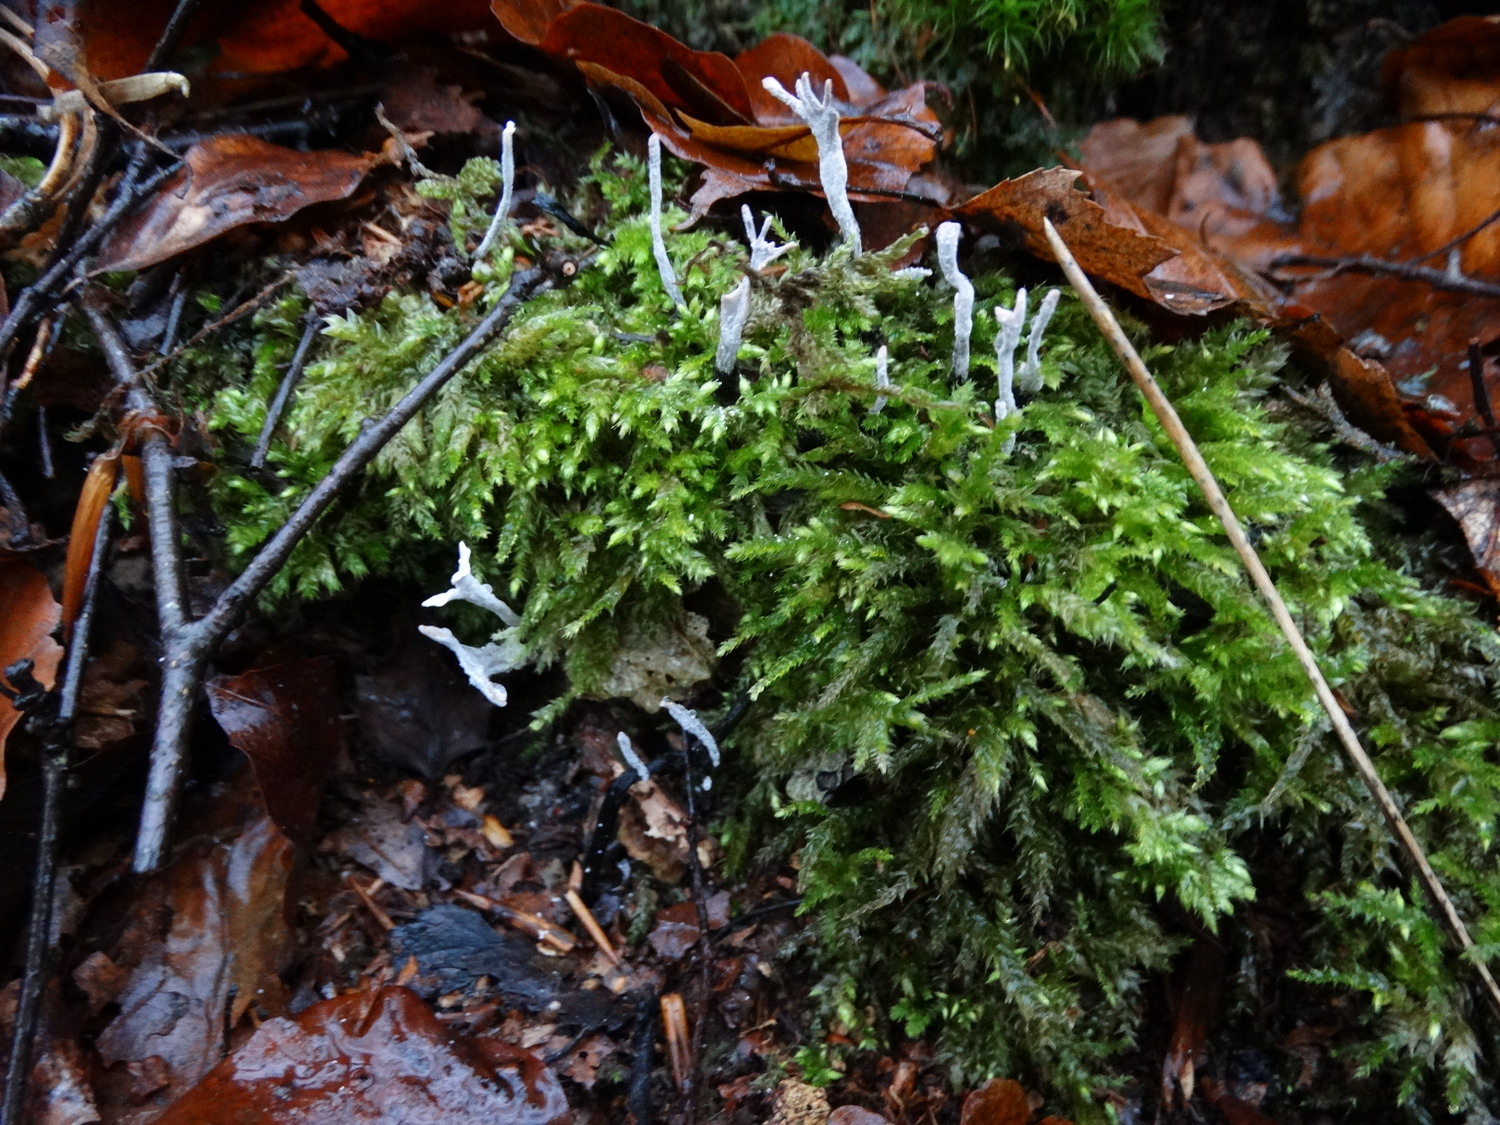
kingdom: Fungi
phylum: Ascomycota
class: Sordariomycetes
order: Xylariales
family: Xylariaceae
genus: Xylaria
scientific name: Xylaria hypoxylon
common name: grenet stødsvamp
